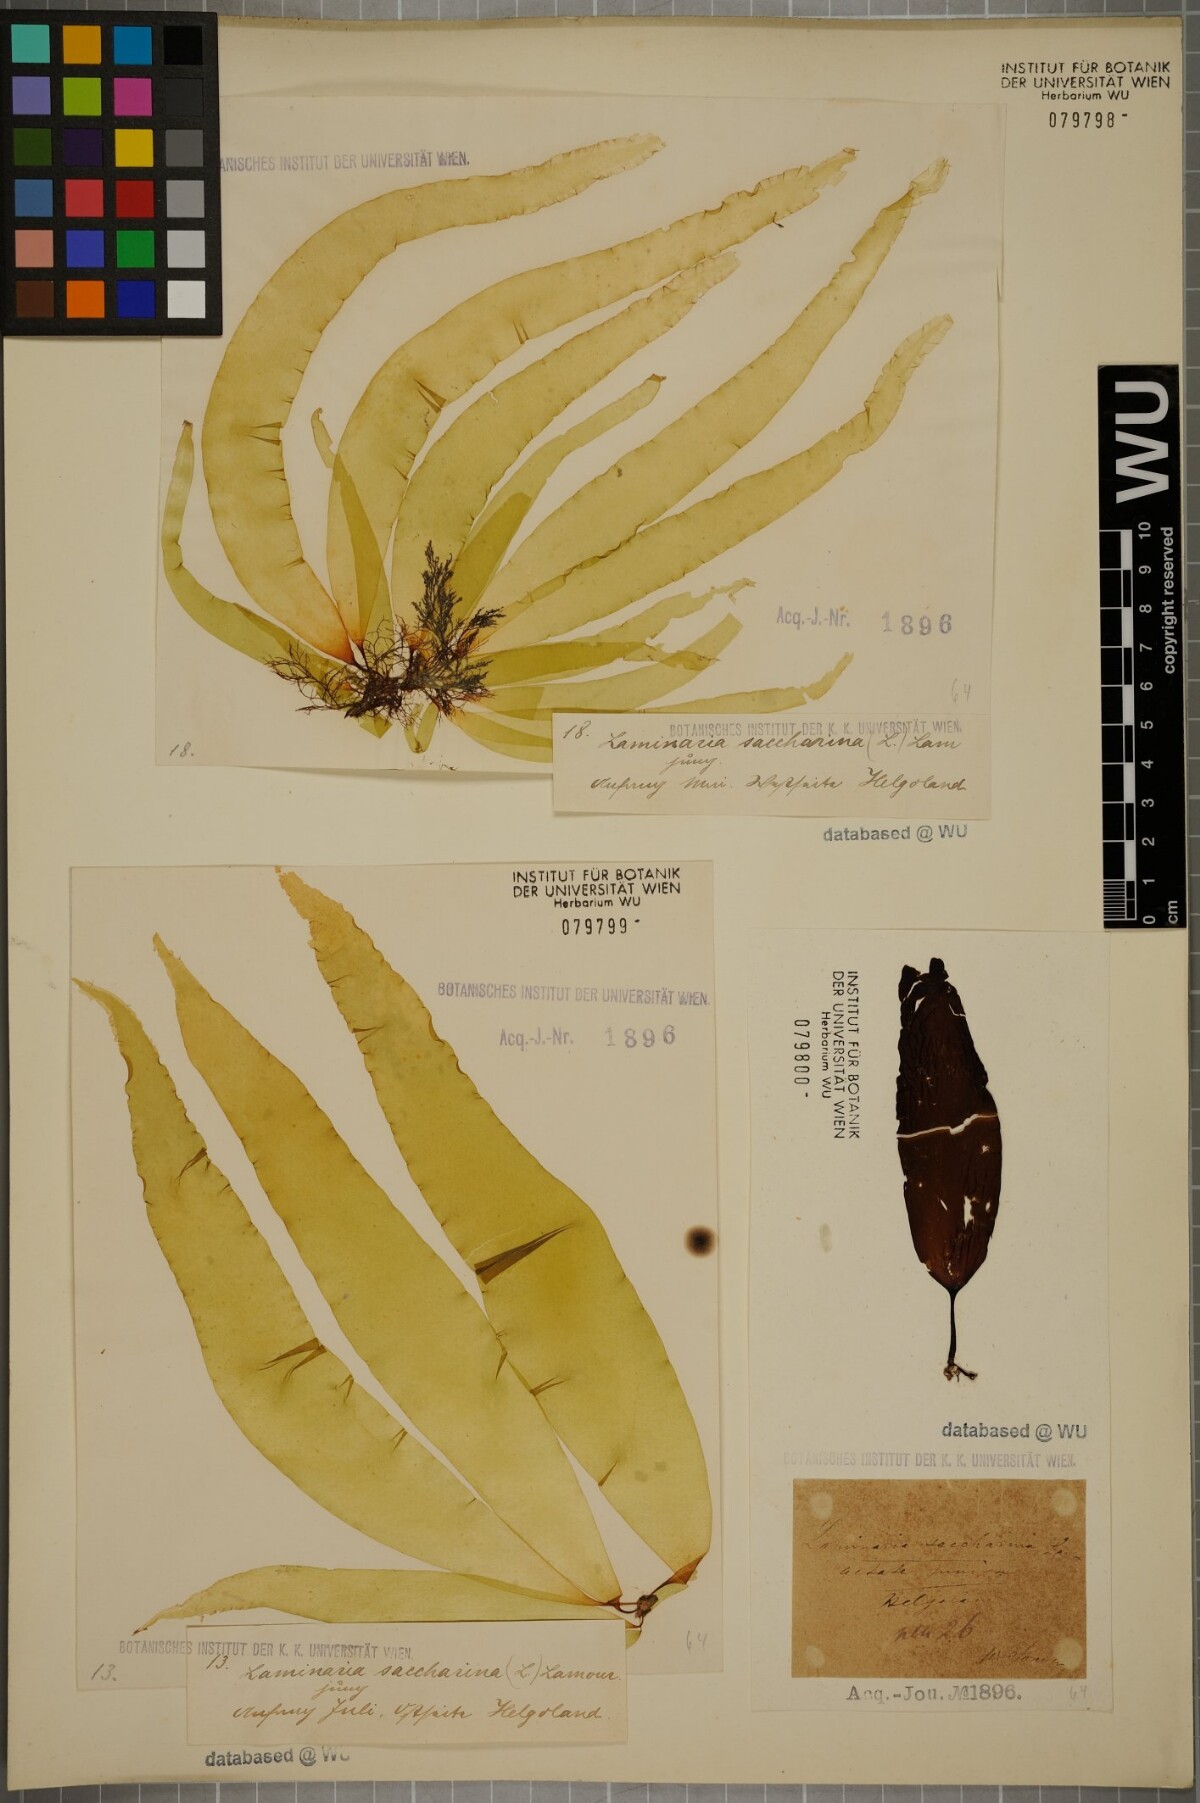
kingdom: Chromista
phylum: Ochrophyta
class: Phaeophyceae
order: Laminariales
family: Laminariaceae
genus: Saccharina
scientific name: Saccharina latissima
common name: Poor man's weather glass
